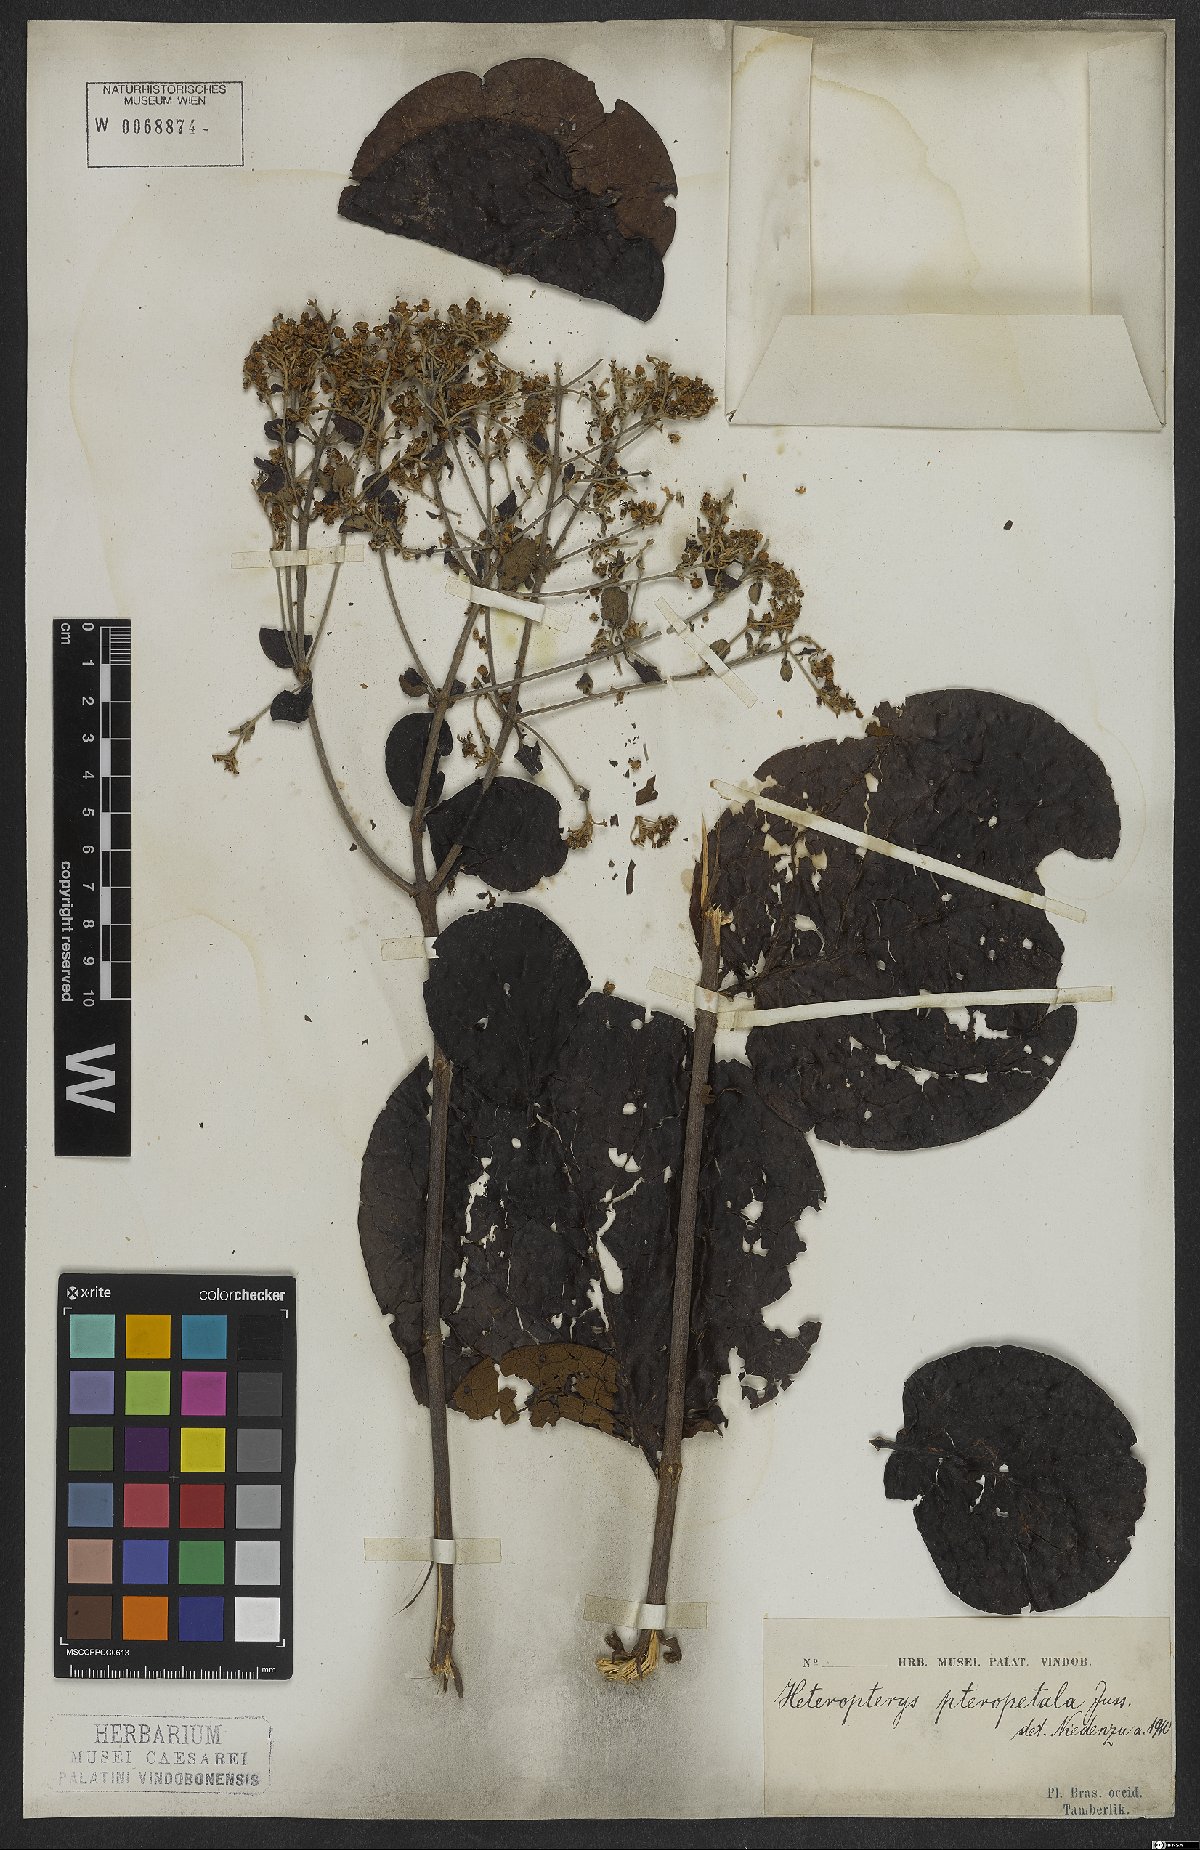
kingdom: Plantae
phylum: Tracheophyta
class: Magnoliopsida
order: Malpighiales
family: Malpighiaceae
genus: Heteropterys
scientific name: Heteropterys pteropetala
